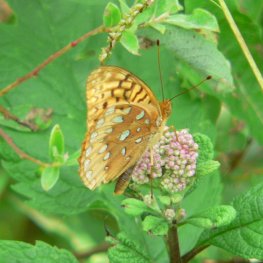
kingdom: Animalia
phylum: Arthropoda
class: Insecta
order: Lepidoptera
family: Nymphalidae
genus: Speyeria
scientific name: Speyeria cybele
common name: Great Spangled Fritillary
